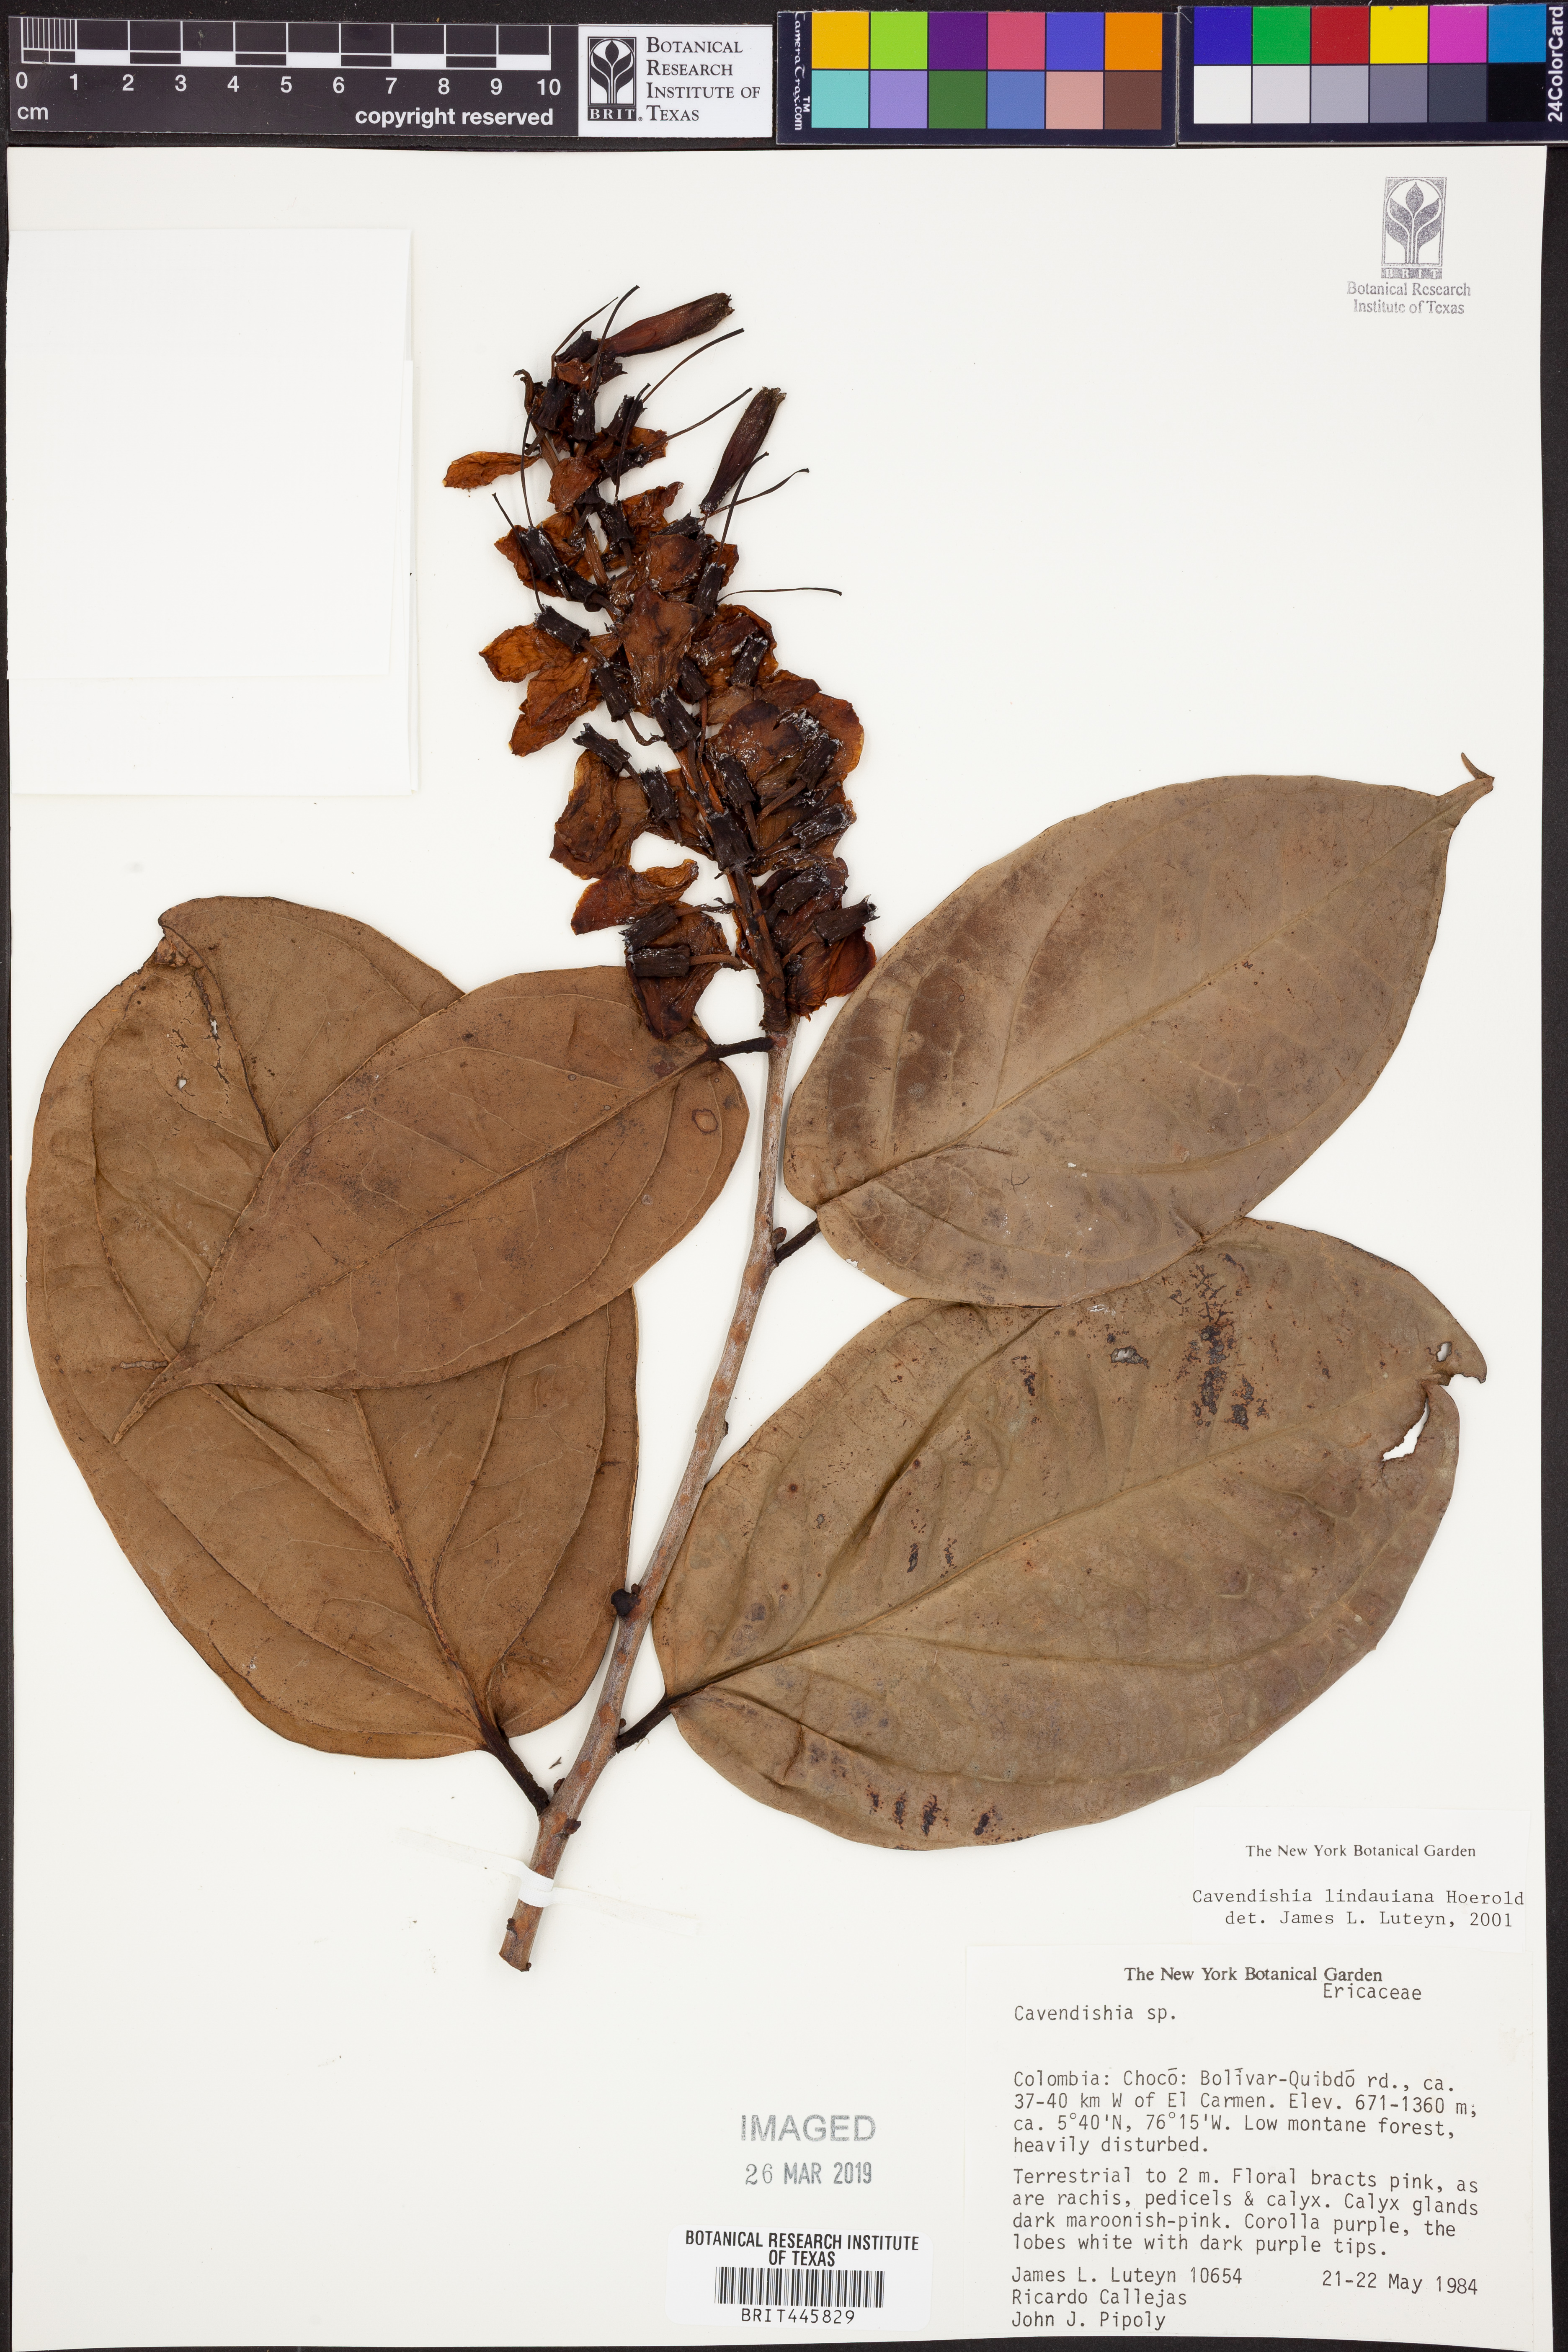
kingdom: Plantae
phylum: Tracheophyta
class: Magnoliopsida
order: Ericales
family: Ericaceae
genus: Cavendishia
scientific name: Cavendishia lindauiana
